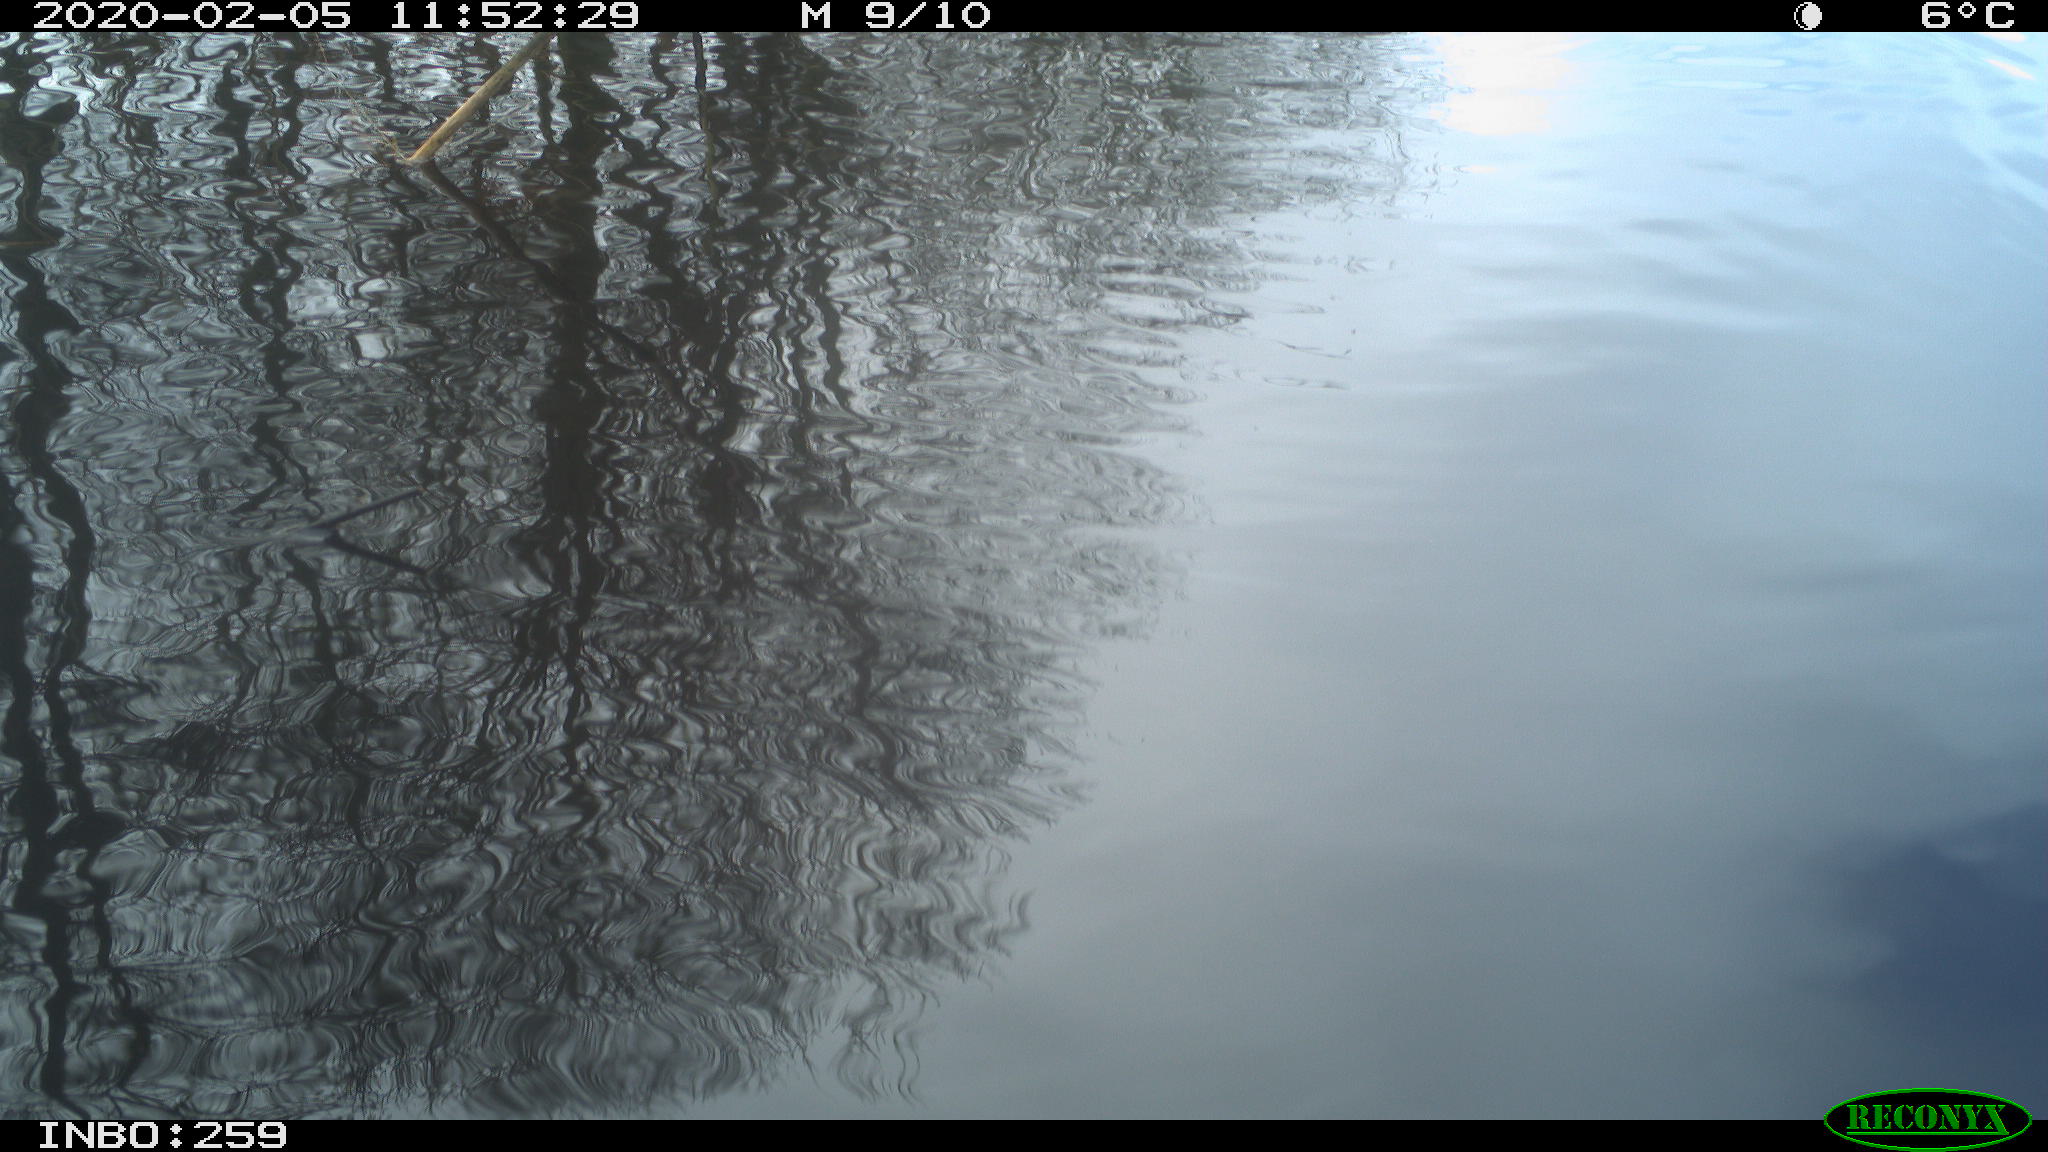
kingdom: Animalia
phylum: Chordata
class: Aves
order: Gruiformes
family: Rallidae
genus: Gallinula
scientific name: Gallinula chloropus
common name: Common moorhen
